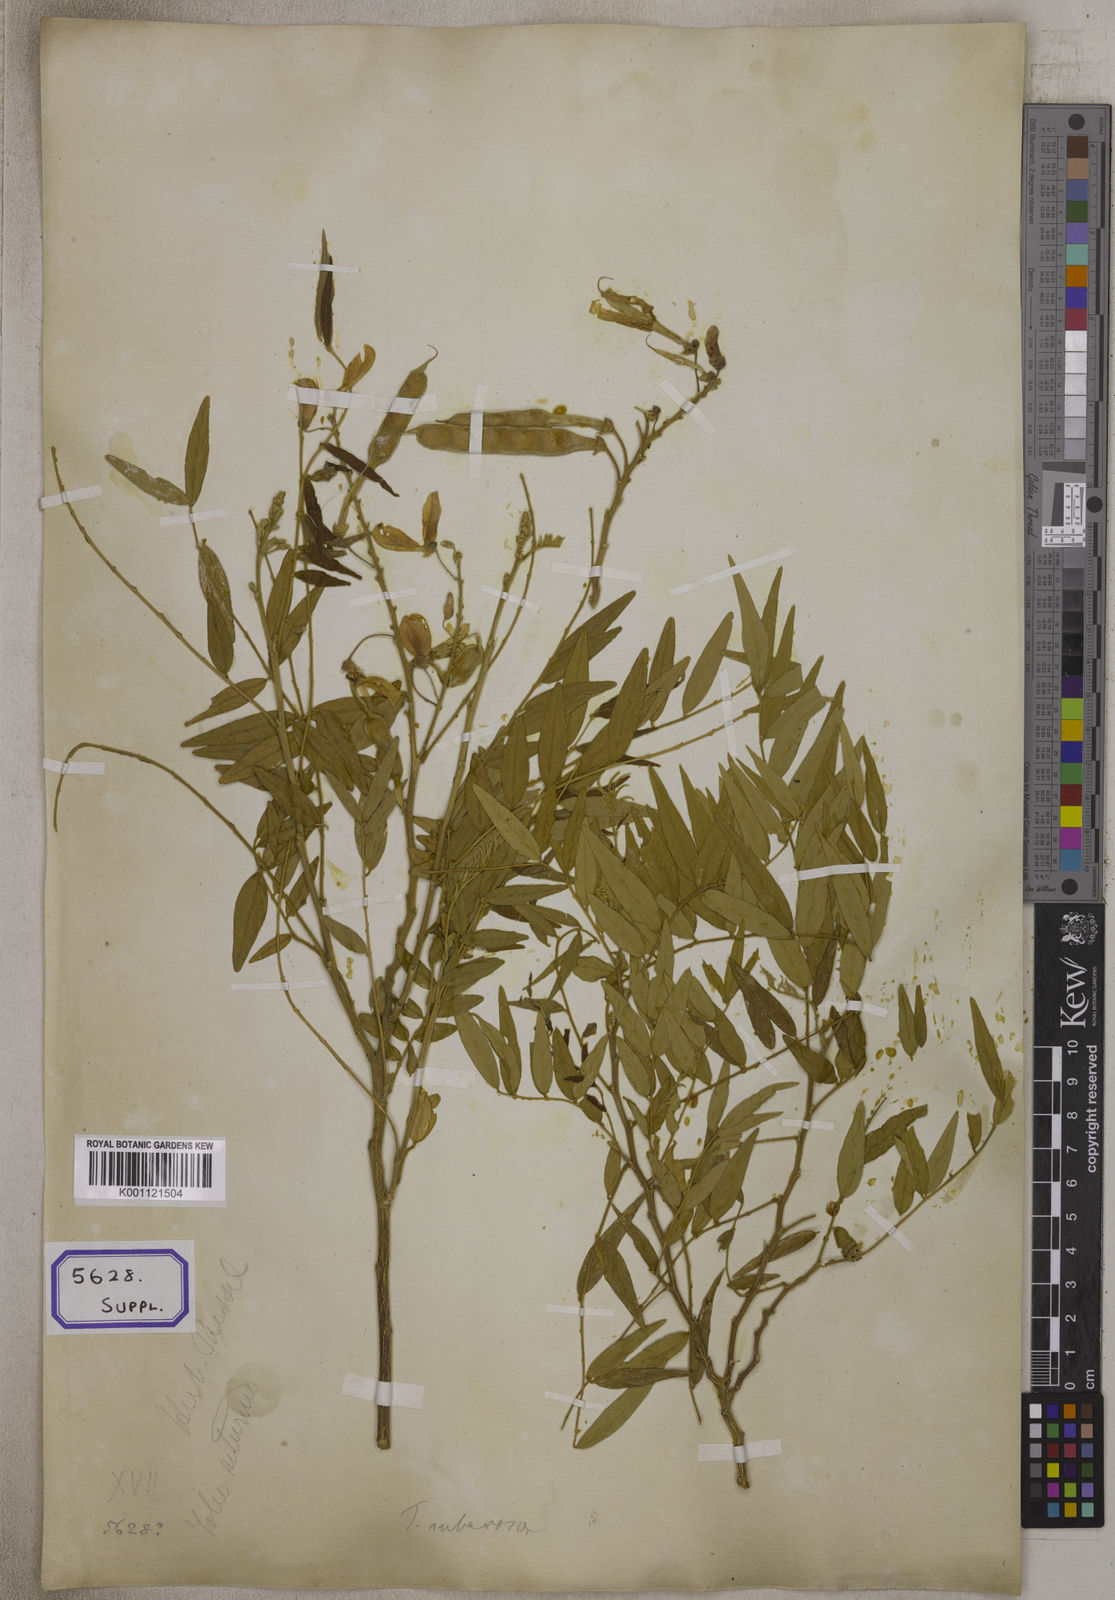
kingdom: Plantae
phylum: Tracheophyta
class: Magnoliopsida
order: Fabales
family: Fabaceae
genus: Mundulea
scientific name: Mundulea sericea
